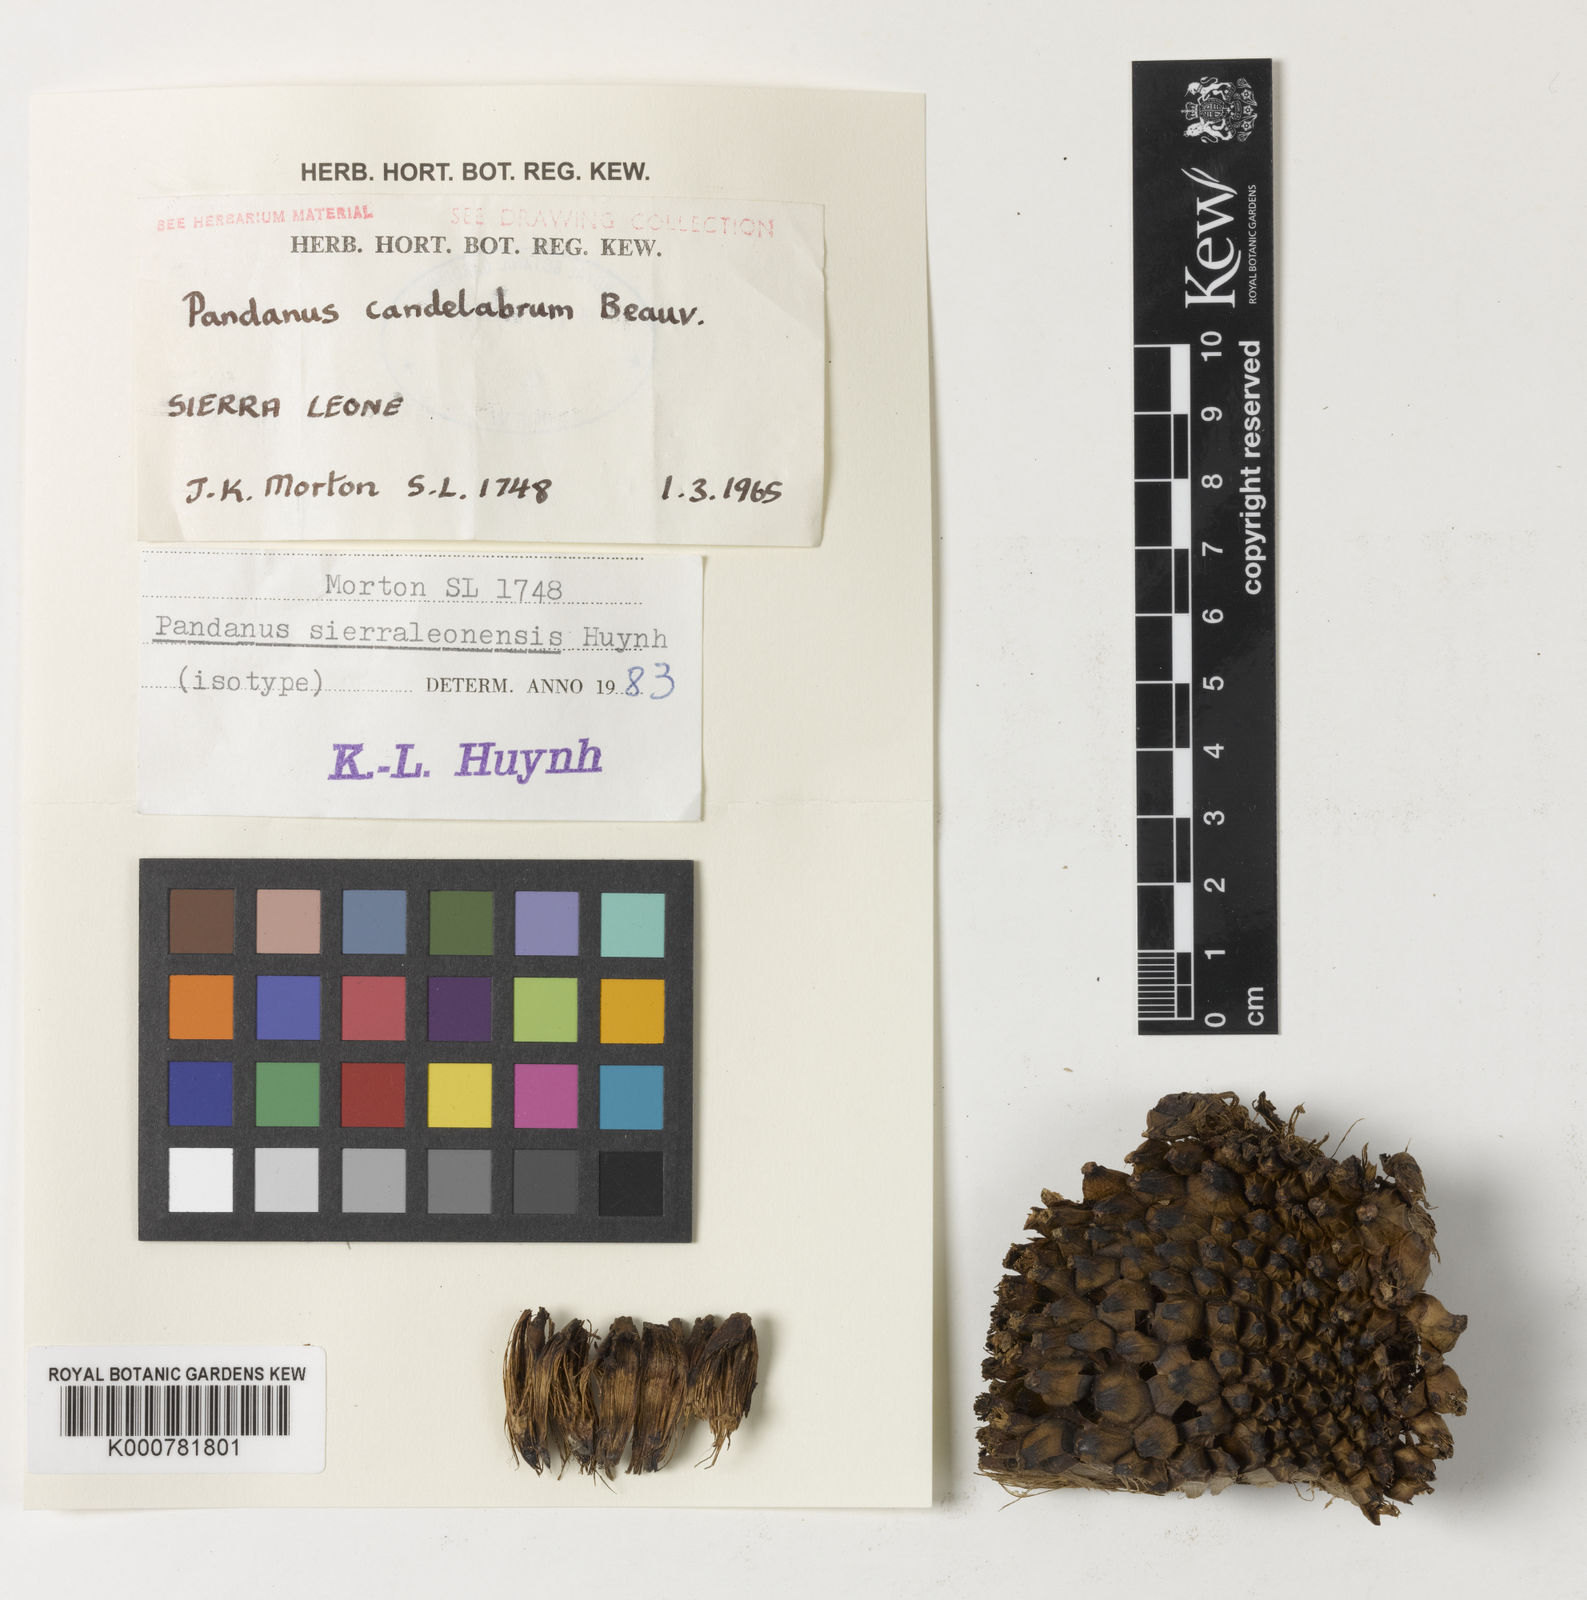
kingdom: Plantae
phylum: Tracheophyta
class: Liliopsida
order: Pandanales
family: Pandanaceae
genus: Pandanus
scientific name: Pandanus candelabrum
